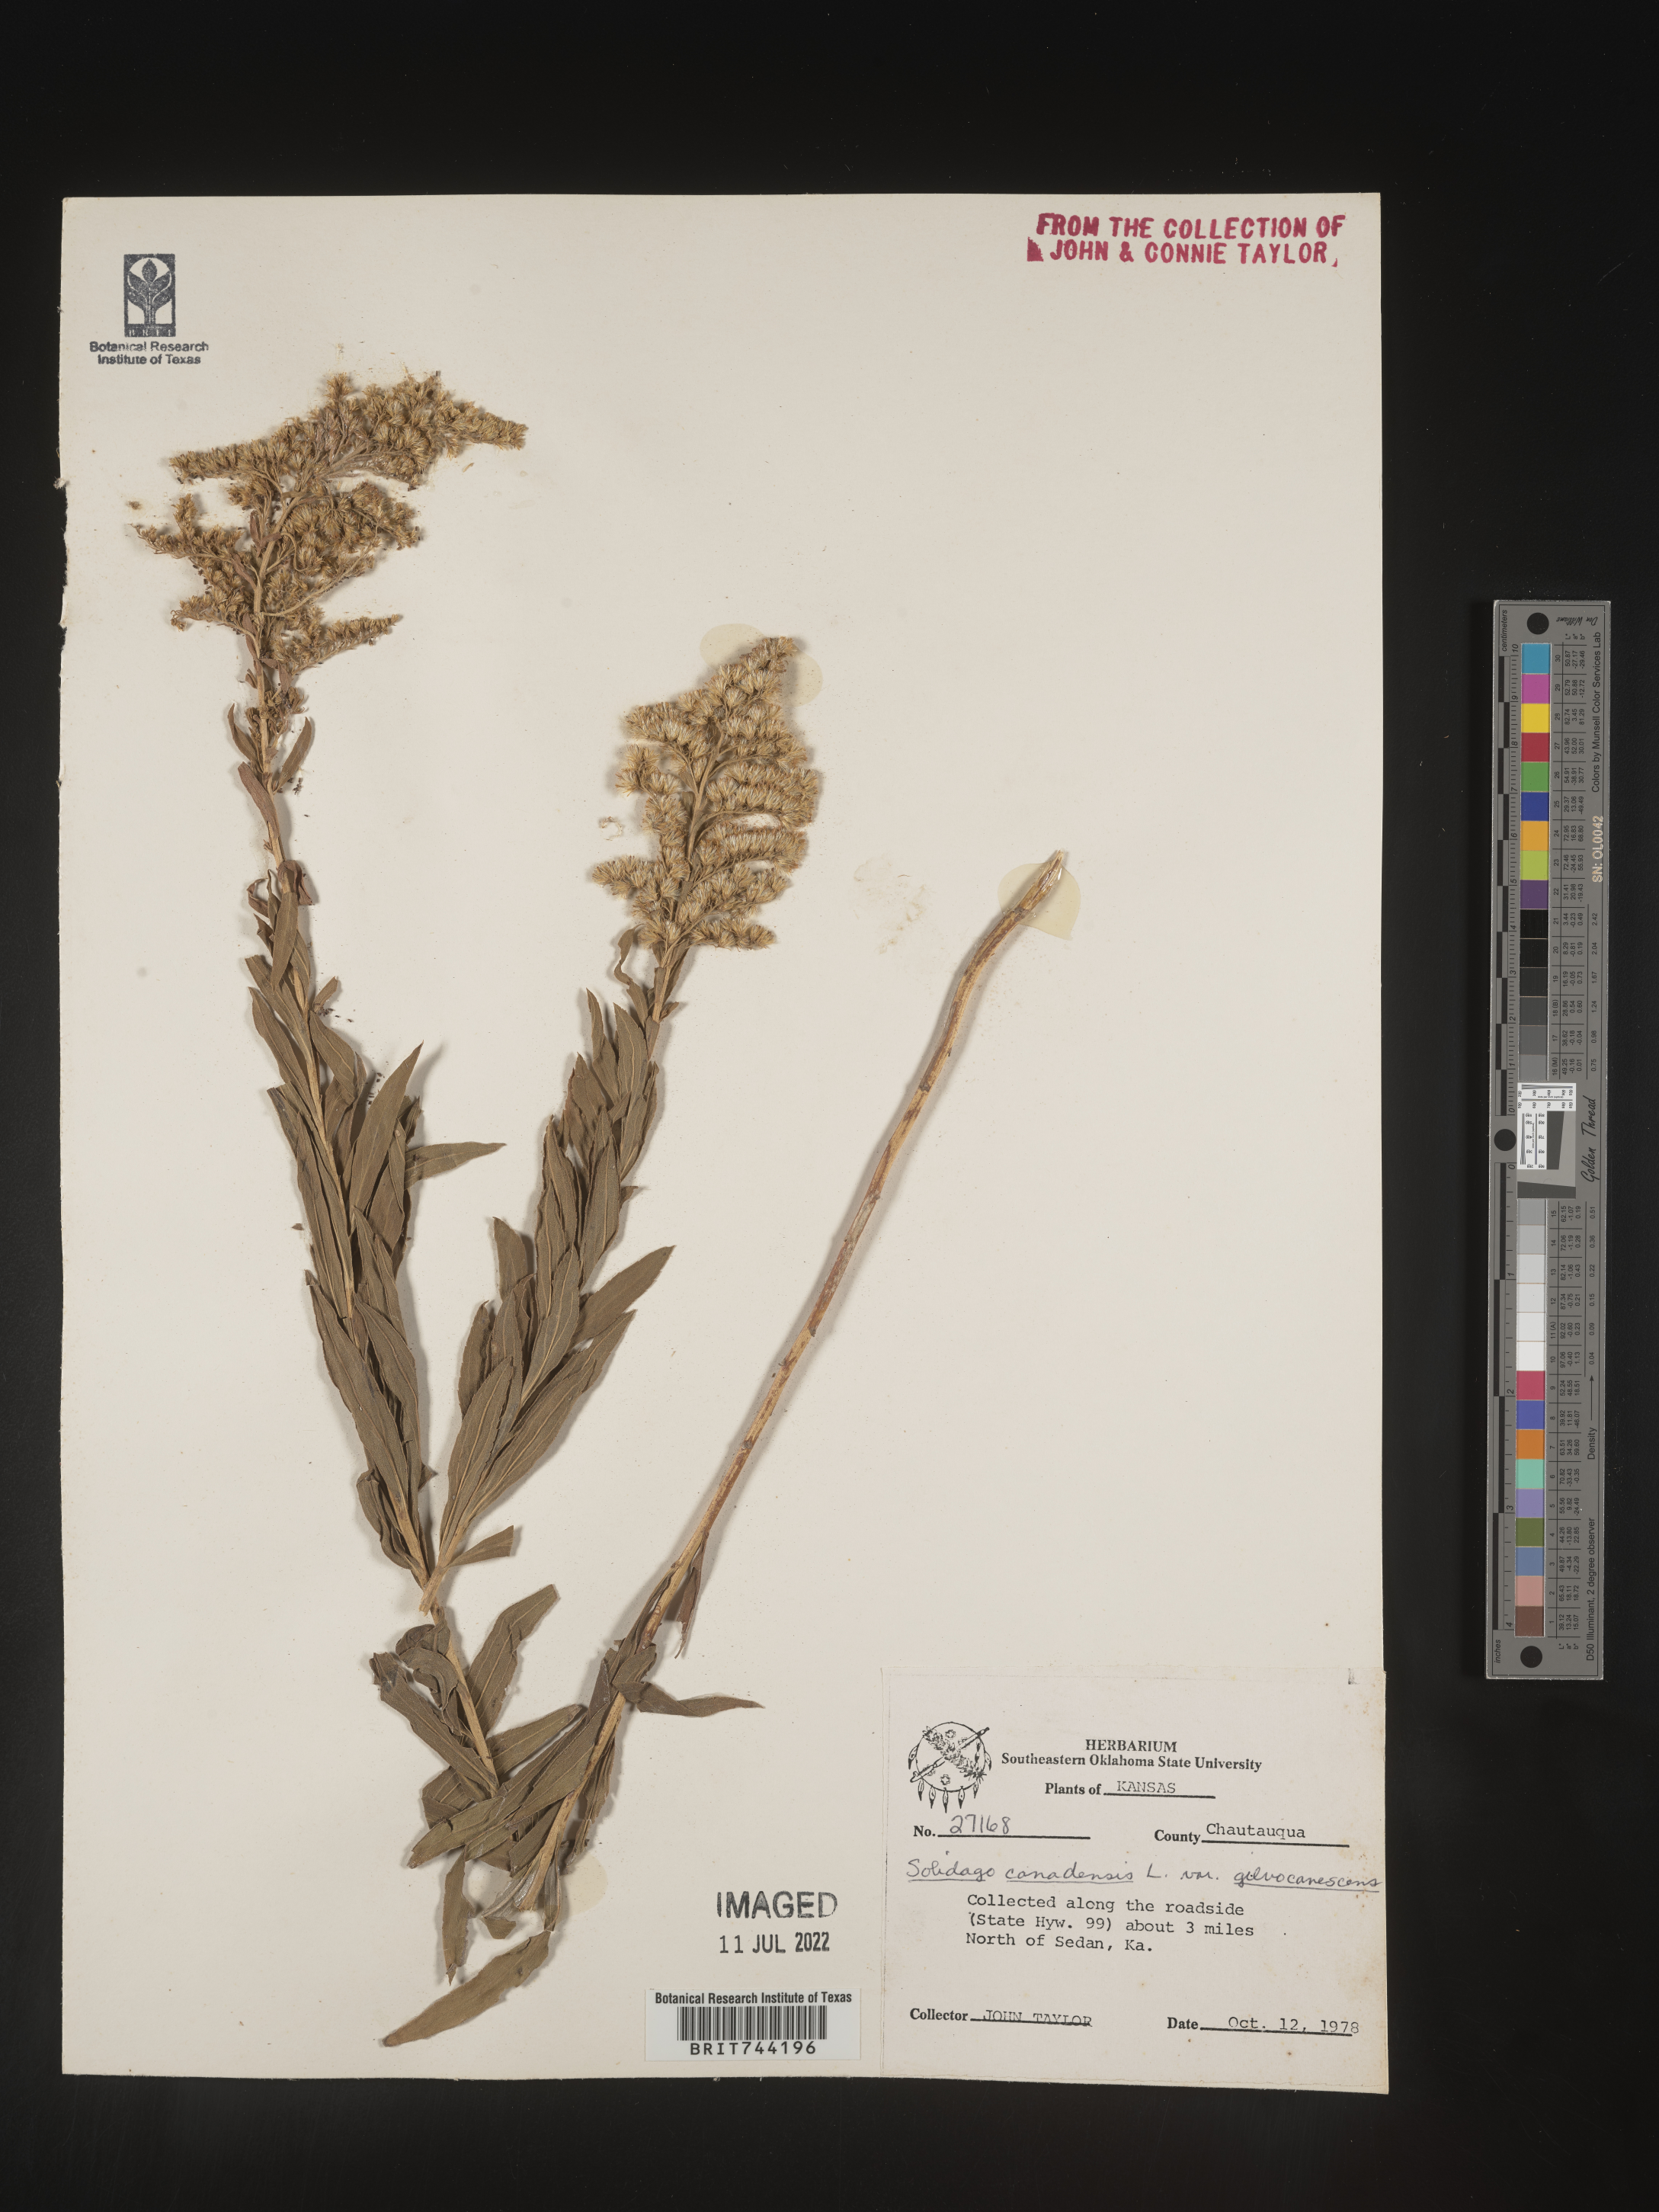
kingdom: Plantae
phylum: Tracheophyta
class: Magnoliopsida
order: Asterales
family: Asteraceae
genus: Solidago
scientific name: Solidago altissima
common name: Late goldenrod
